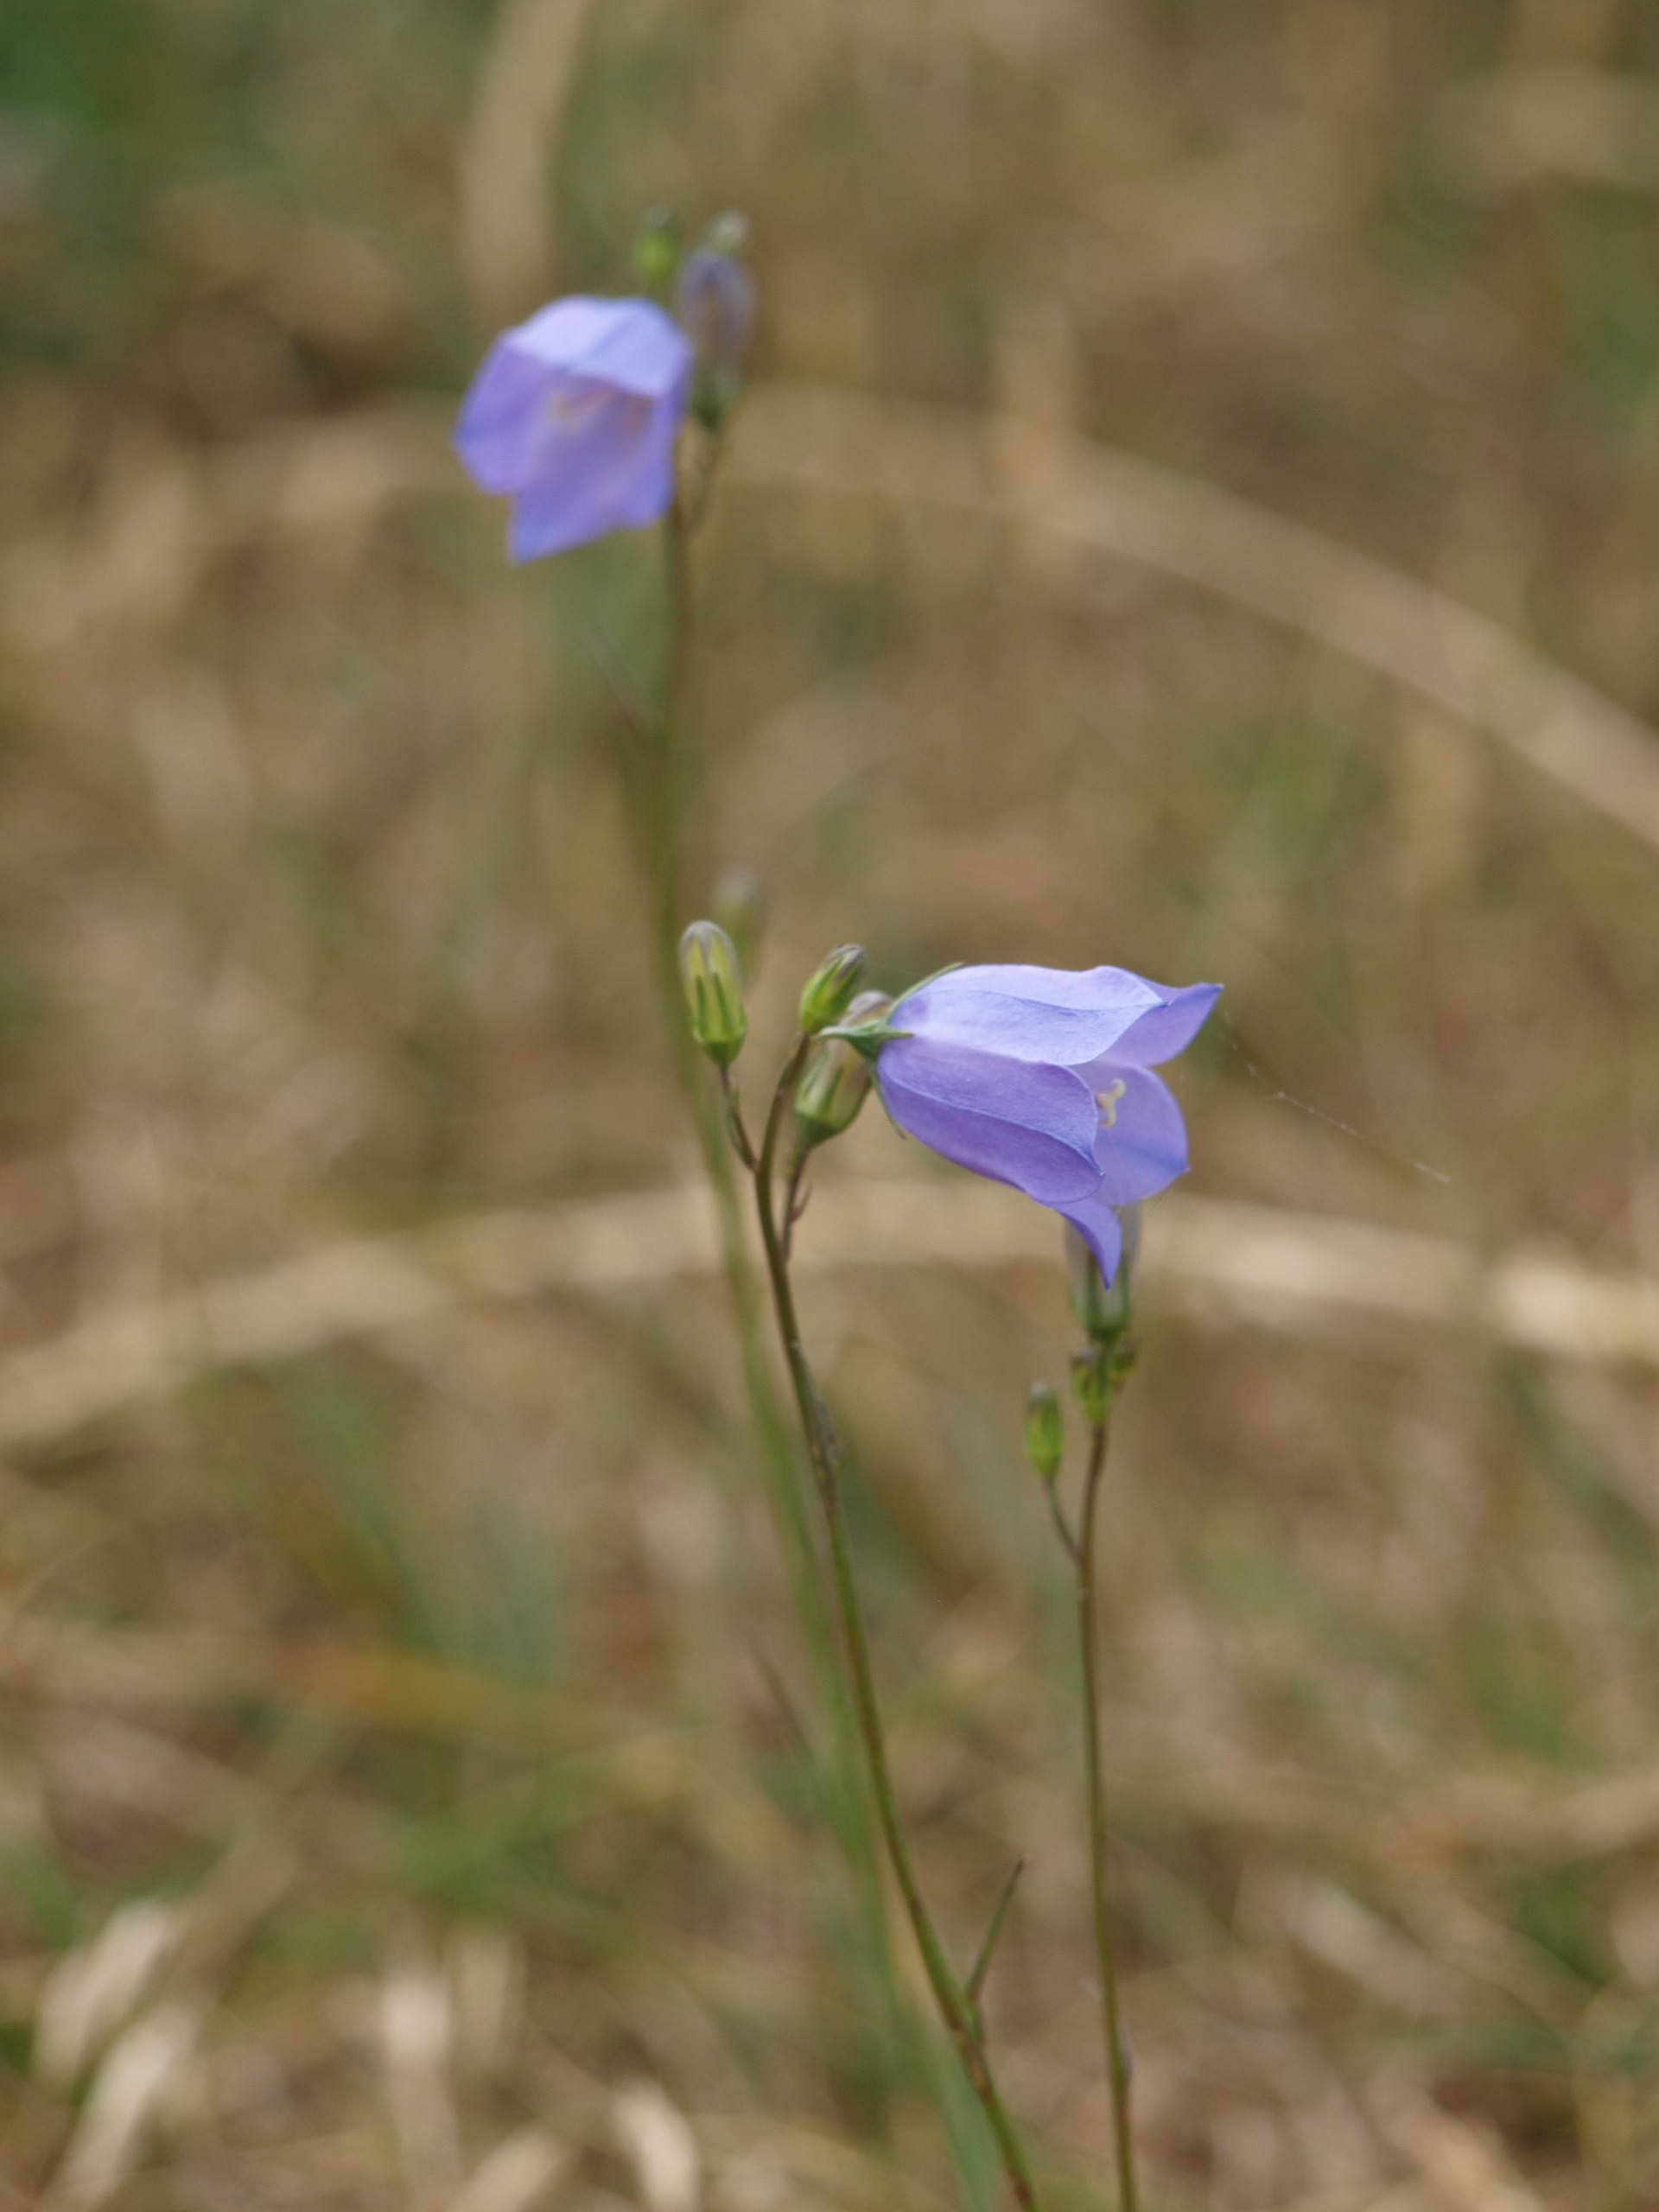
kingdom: Plantae
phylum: Tracheophyta
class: Magnoliopsida
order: Asterales
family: Campanulaceae
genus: Campanula
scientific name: Campanula rotundifolia
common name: Liden klokke
